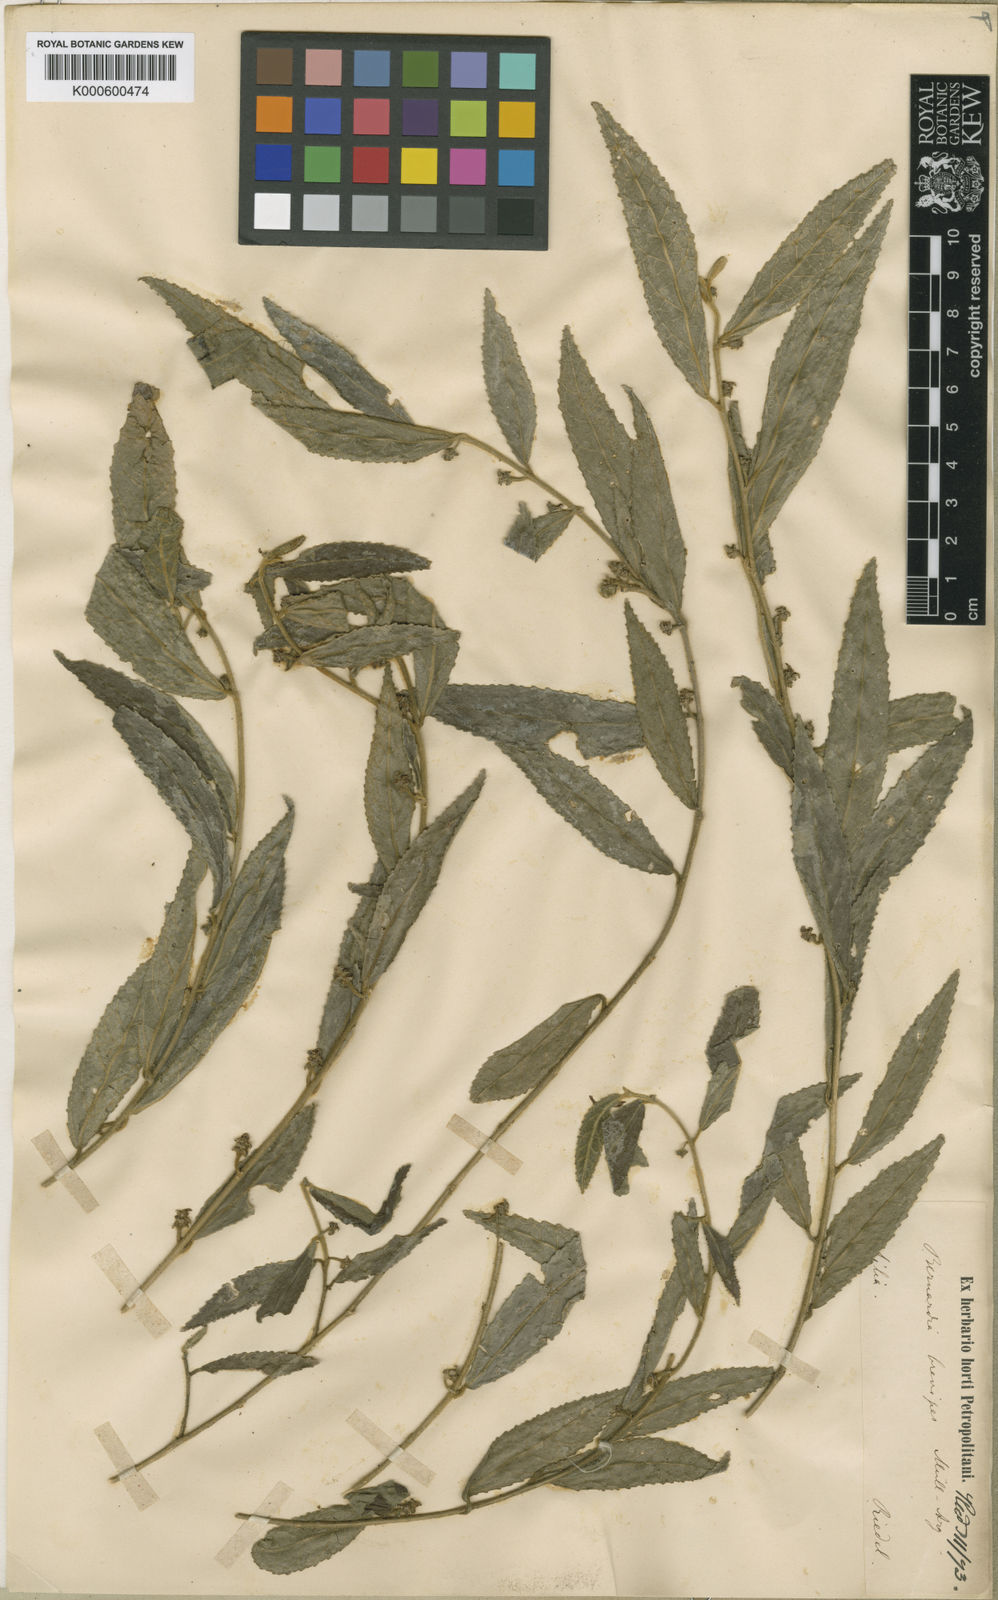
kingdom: Plantae
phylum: Tracheophyta
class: Magnoliopsida
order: Malpighiales
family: Euphorbiaceae
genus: Bernardia
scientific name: Bernardia
